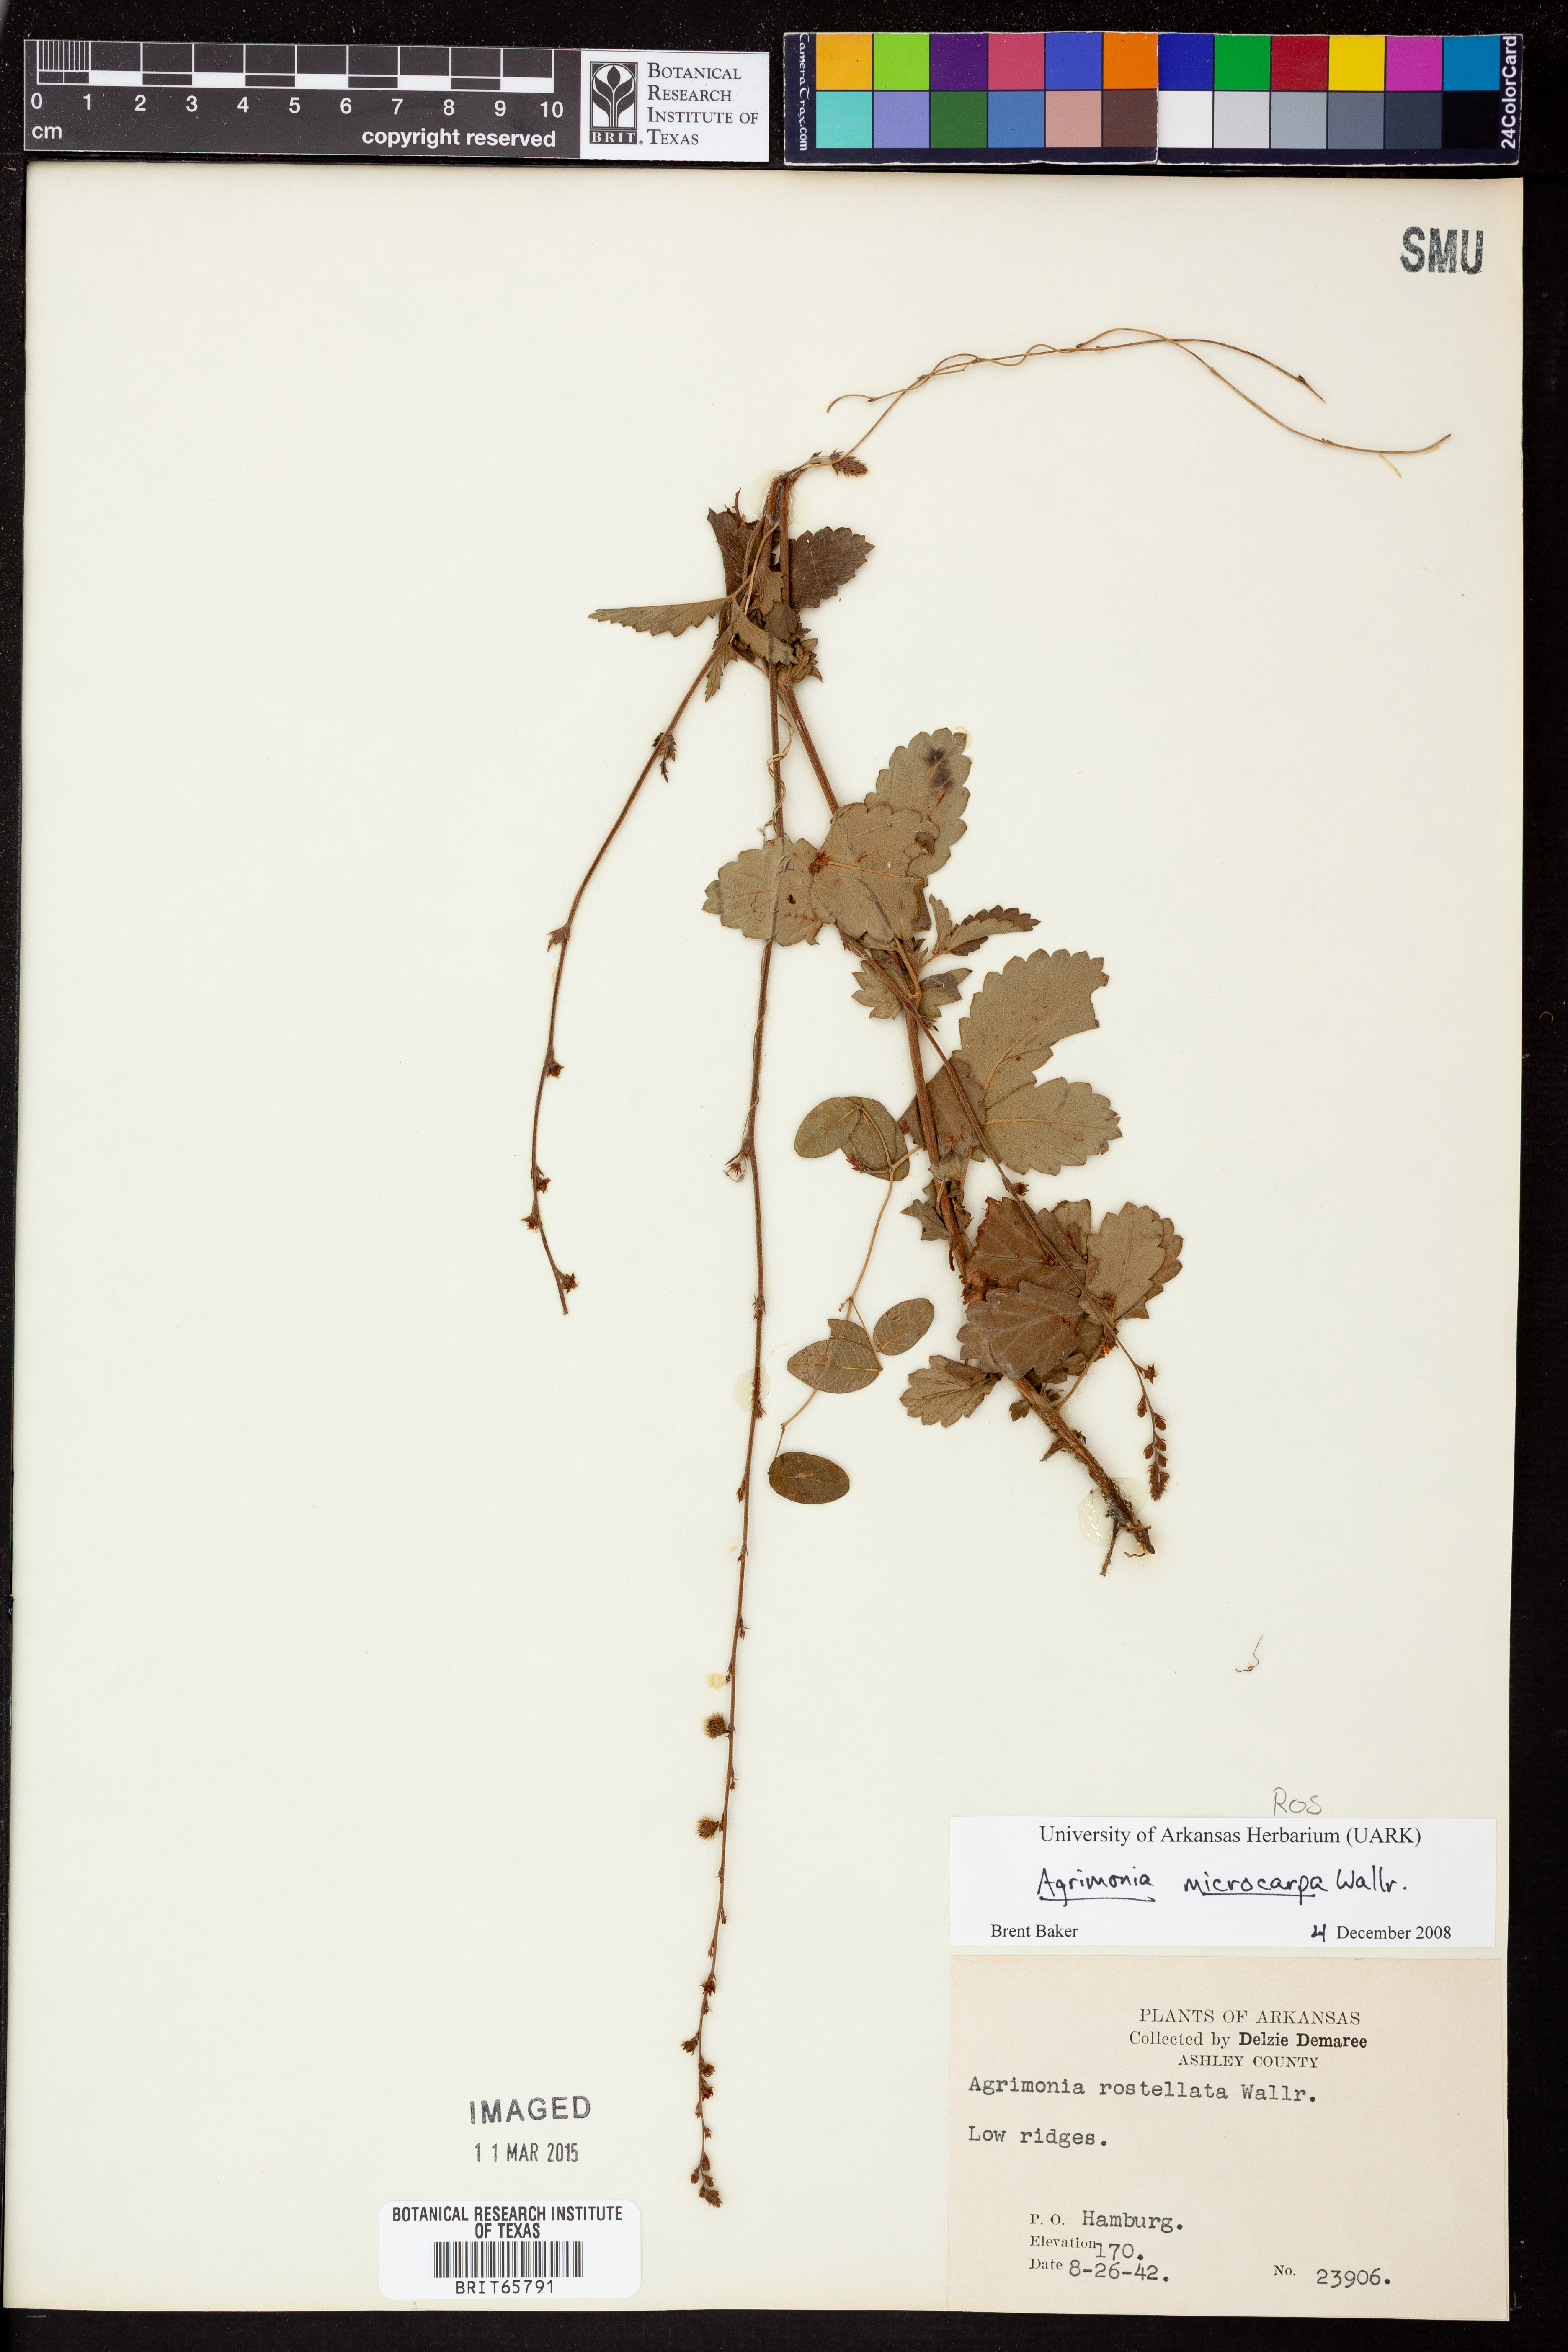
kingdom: Plantae
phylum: Tracheophyta
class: Magnoliopsida
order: Rosales
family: Rosaceae
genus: Agrimonia
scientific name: Agrimonia microcarpa
